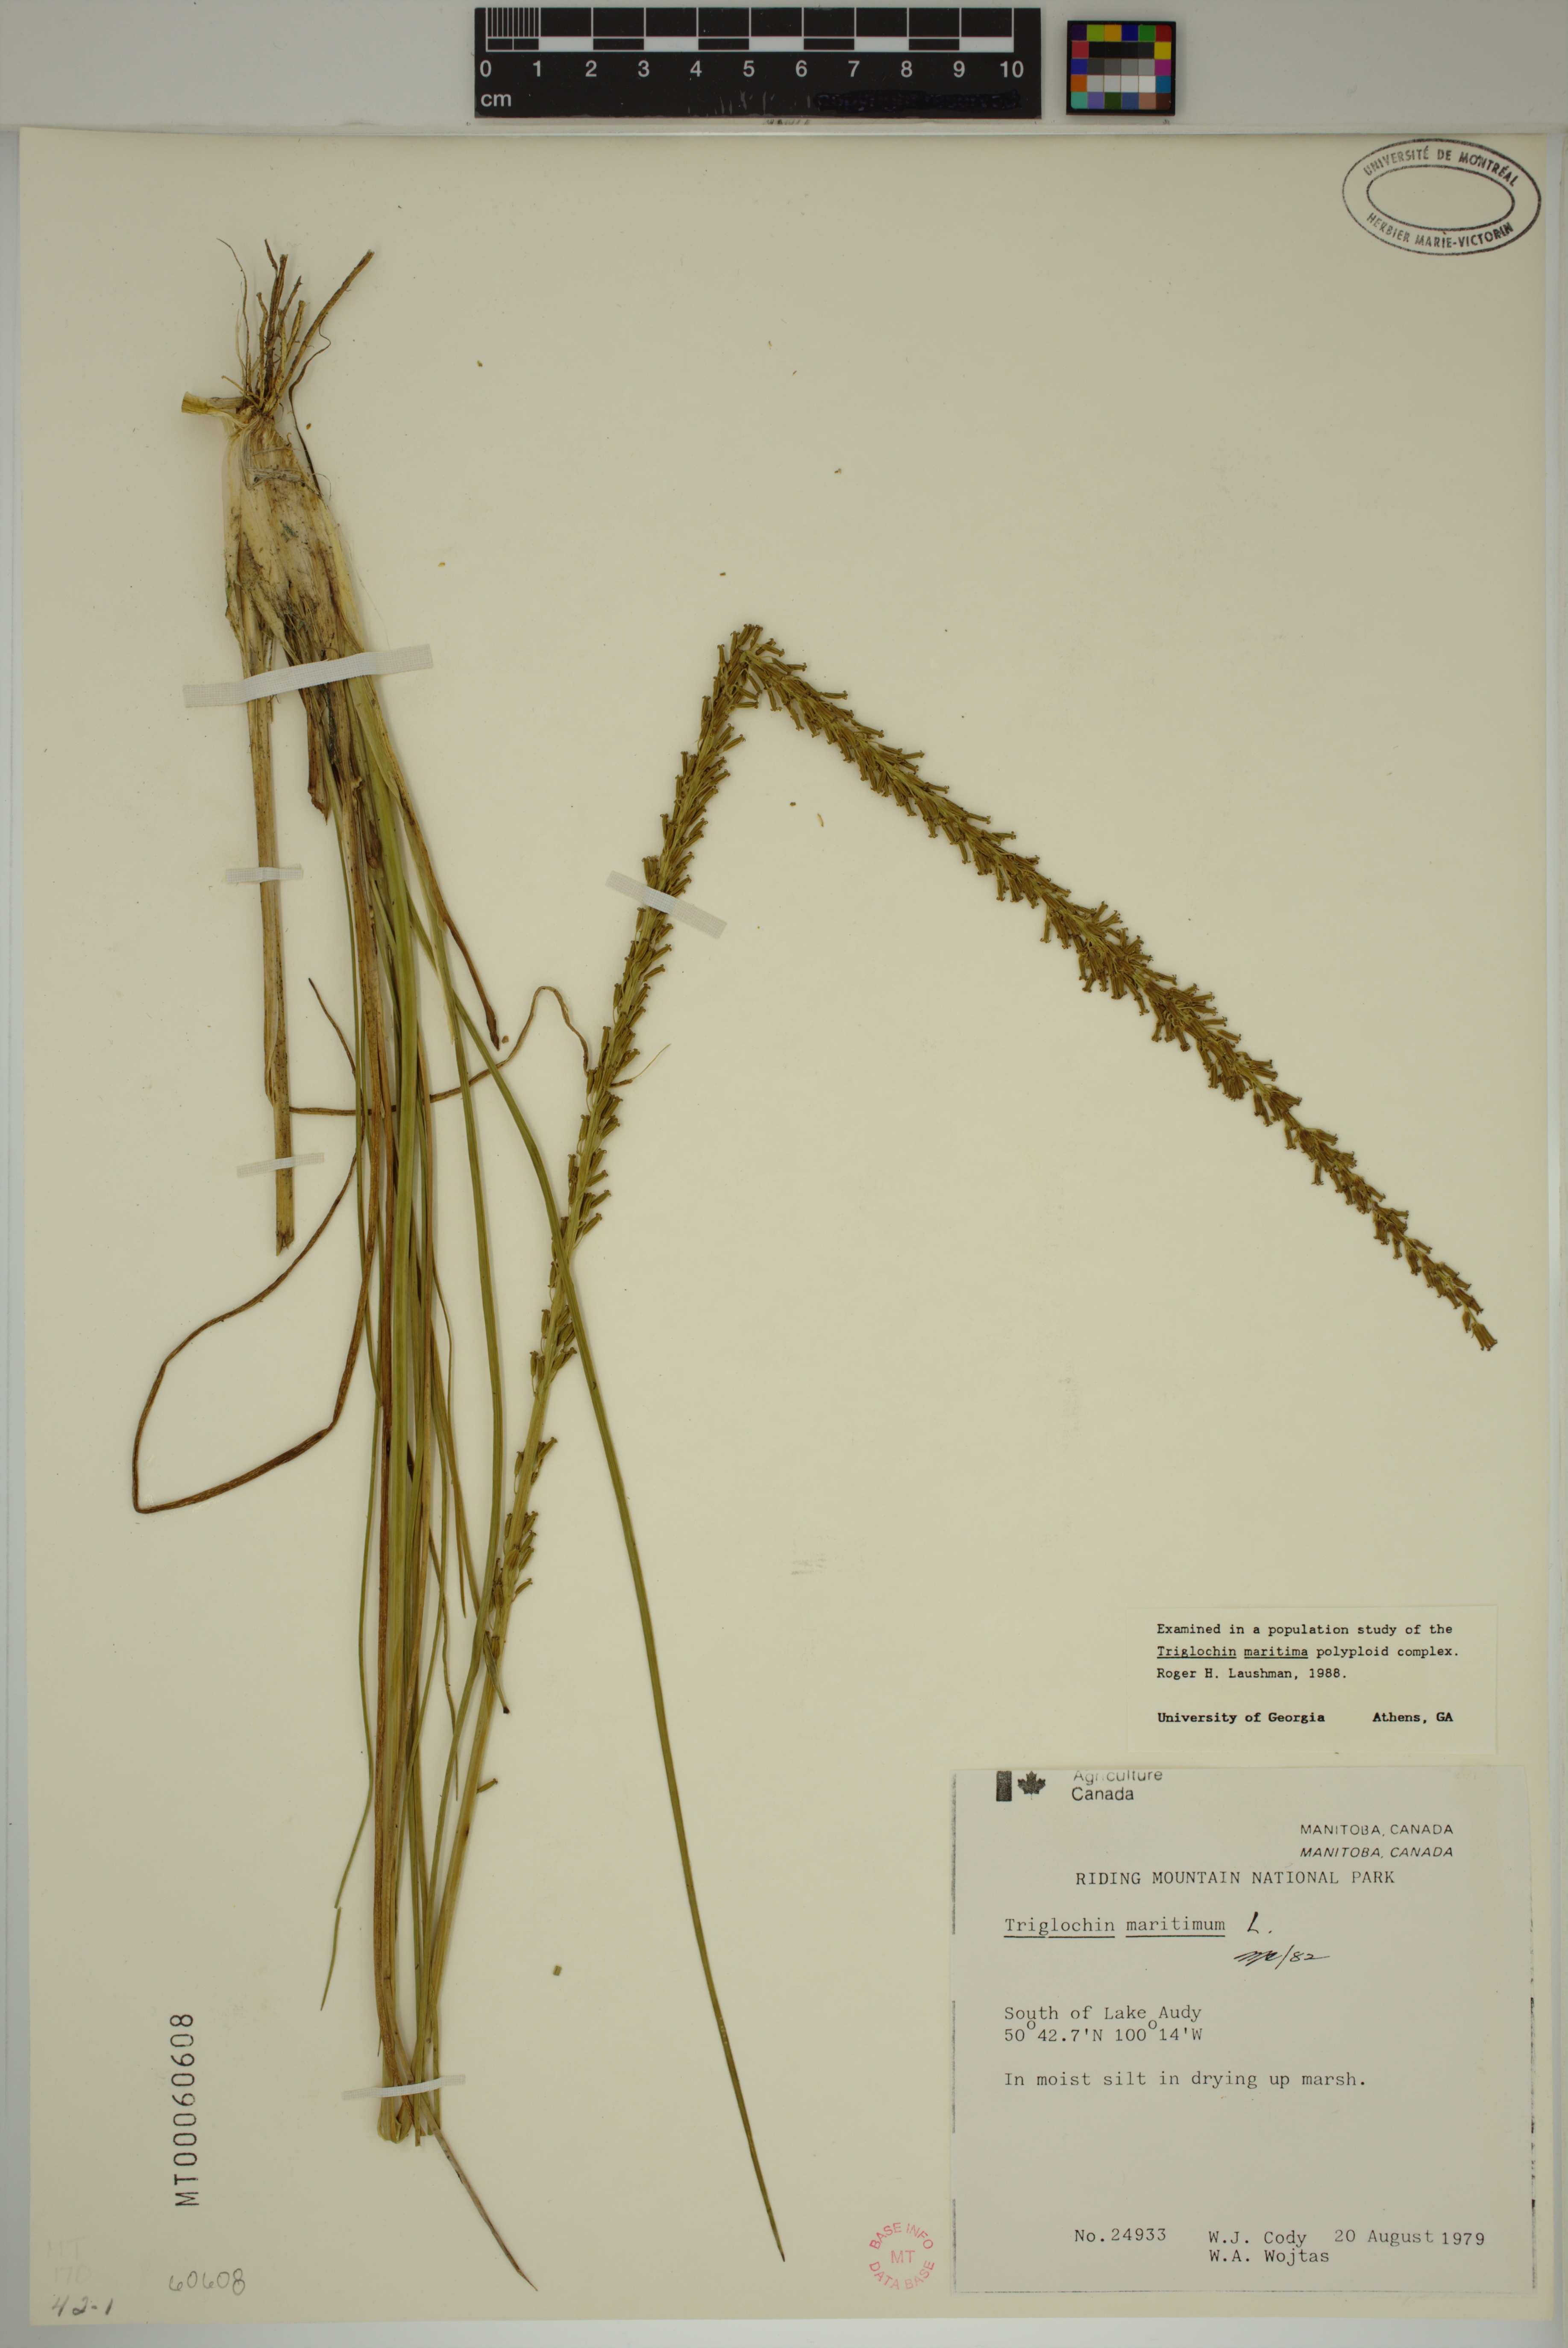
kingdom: Plantae
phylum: Tracheophyta
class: Liliopsida
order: Alismatales
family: Juncaginaceae
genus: Triglochin
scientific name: Triglochin maritima
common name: Sea arrowgrass
